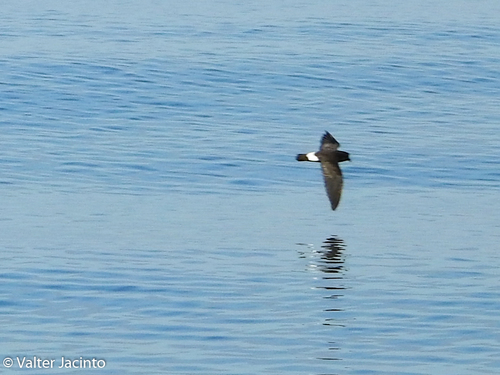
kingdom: Animalia
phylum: Chordata
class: Aves
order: Procellariiformes
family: Hydrobatidae
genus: Hydrobates
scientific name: Hydrobates pelagicus
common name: European storm-petrel
